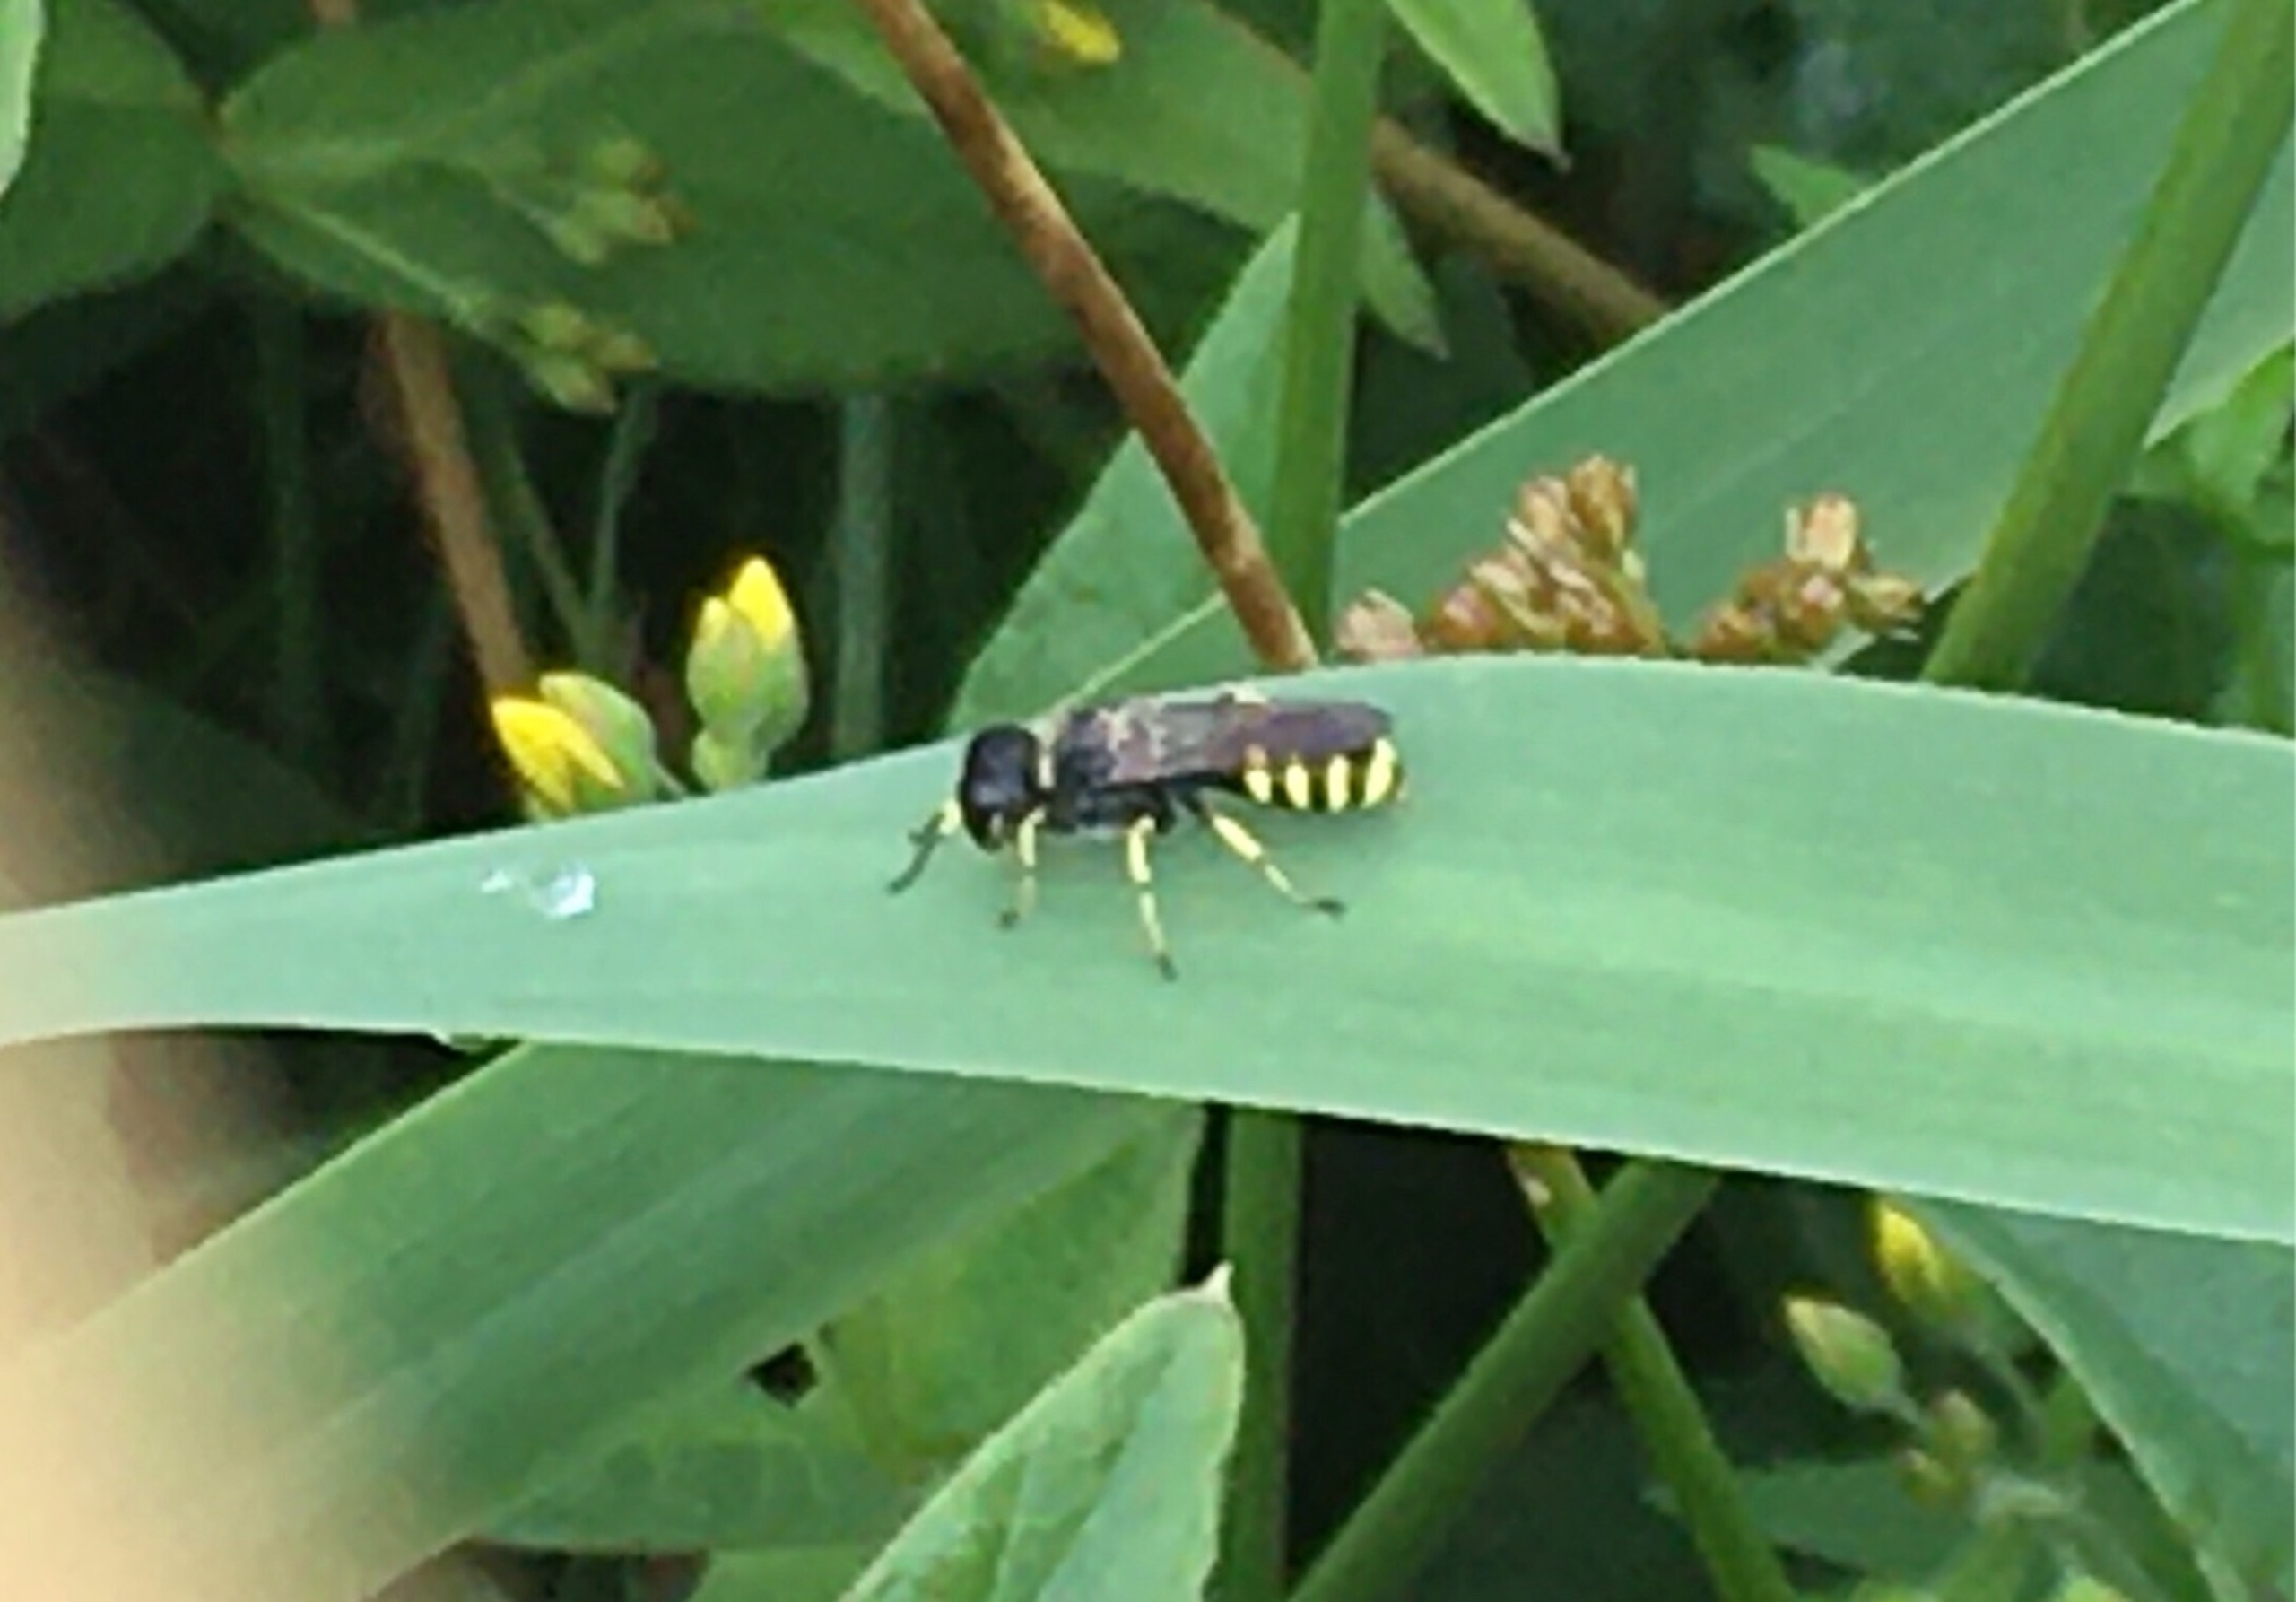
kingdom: Animalia
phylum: Arthropoda
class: Insecta
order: Hymenoptera
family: Crabronidae
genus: Ectemnius
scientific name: Ectemnius
